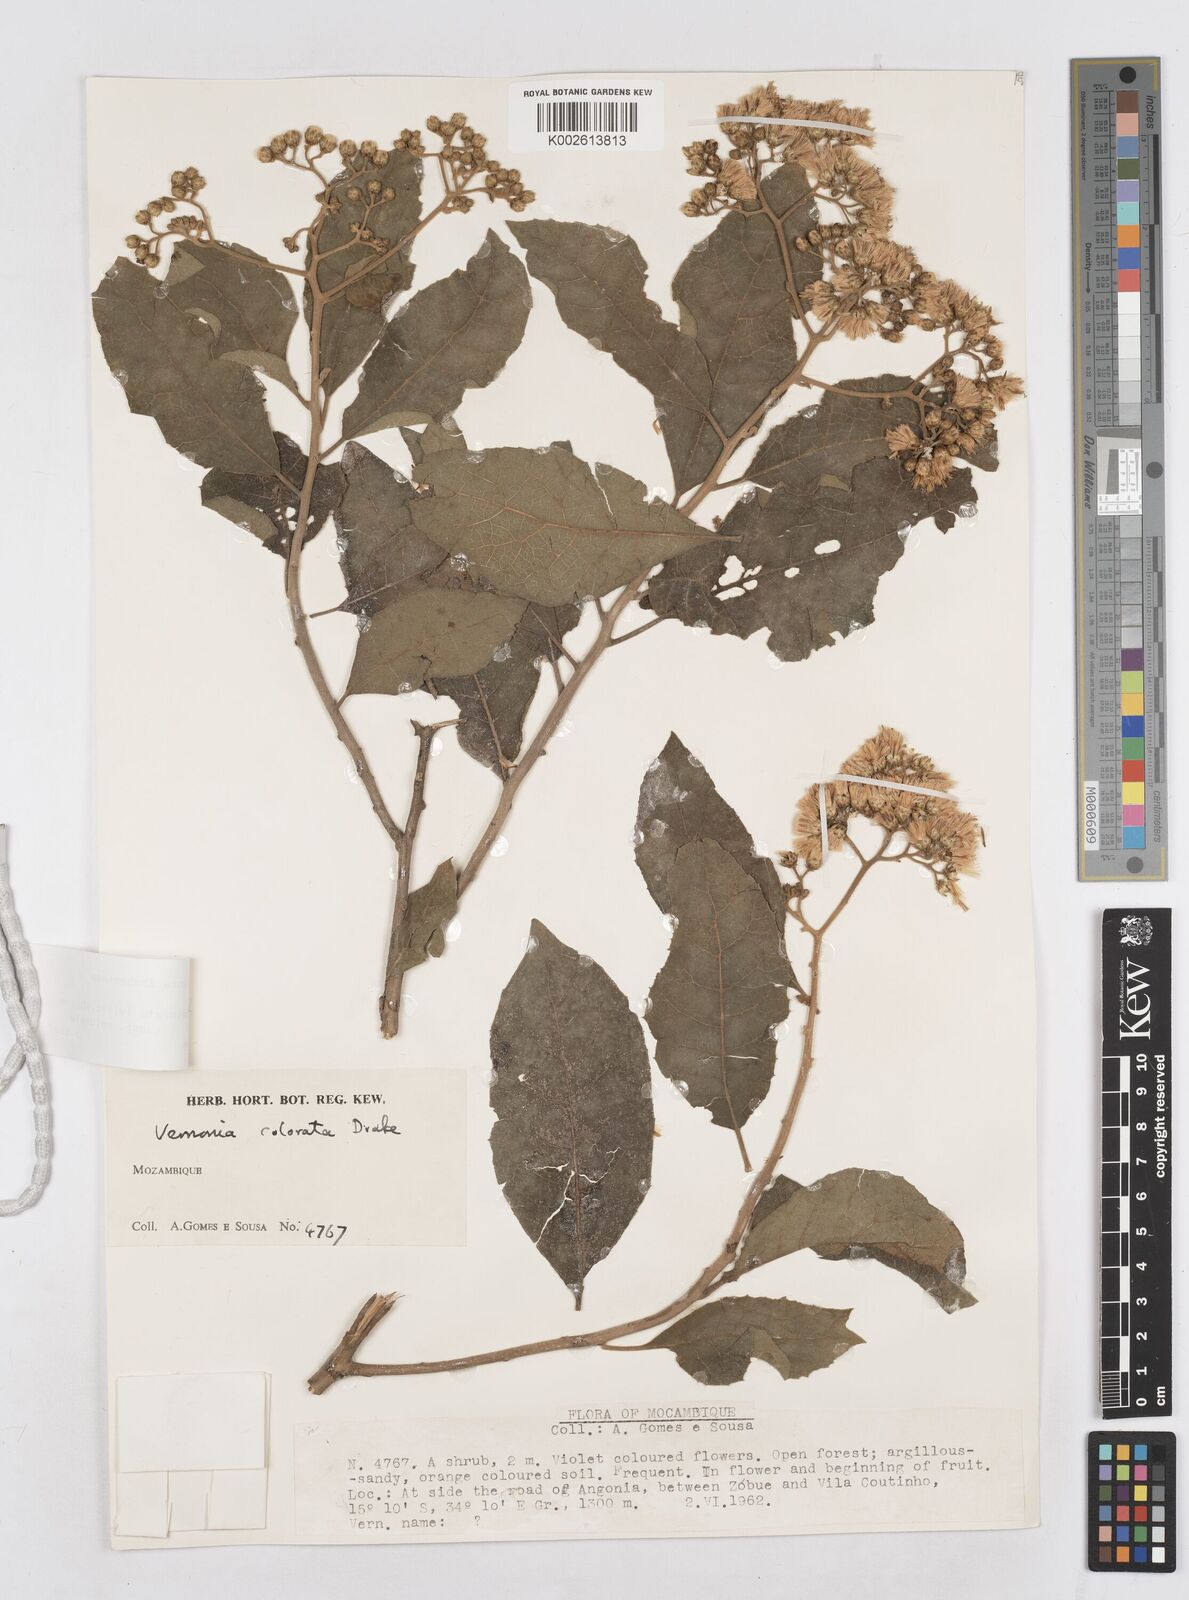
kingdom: Plantae
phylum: Tracheophyta
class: Magnoliopsida
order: Asterales
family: Asteraceae
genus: Vernonia
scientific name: Vernonia colorata
